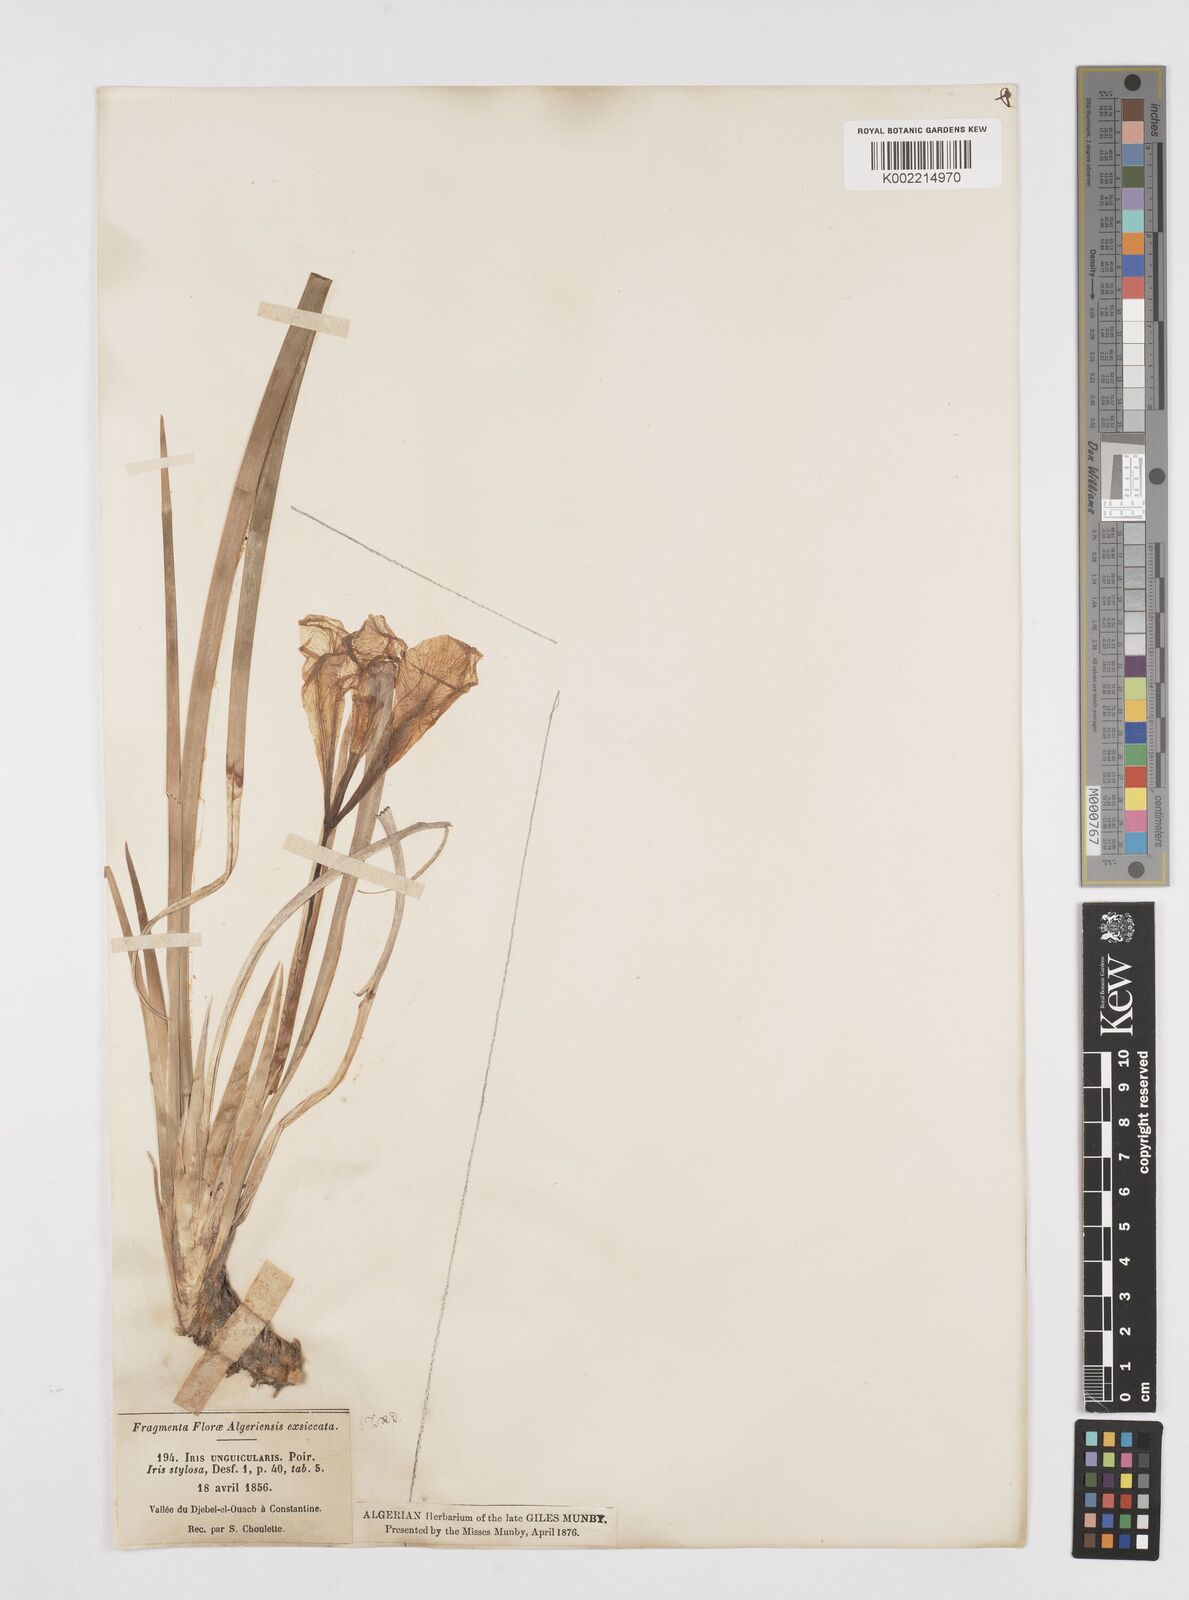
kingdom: Plantae
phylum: Tracheophyta
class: Liliopsida
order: Asparagales
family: Iridaceae
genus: Iris
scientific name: Iris unguicularis
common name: Algerian iris
